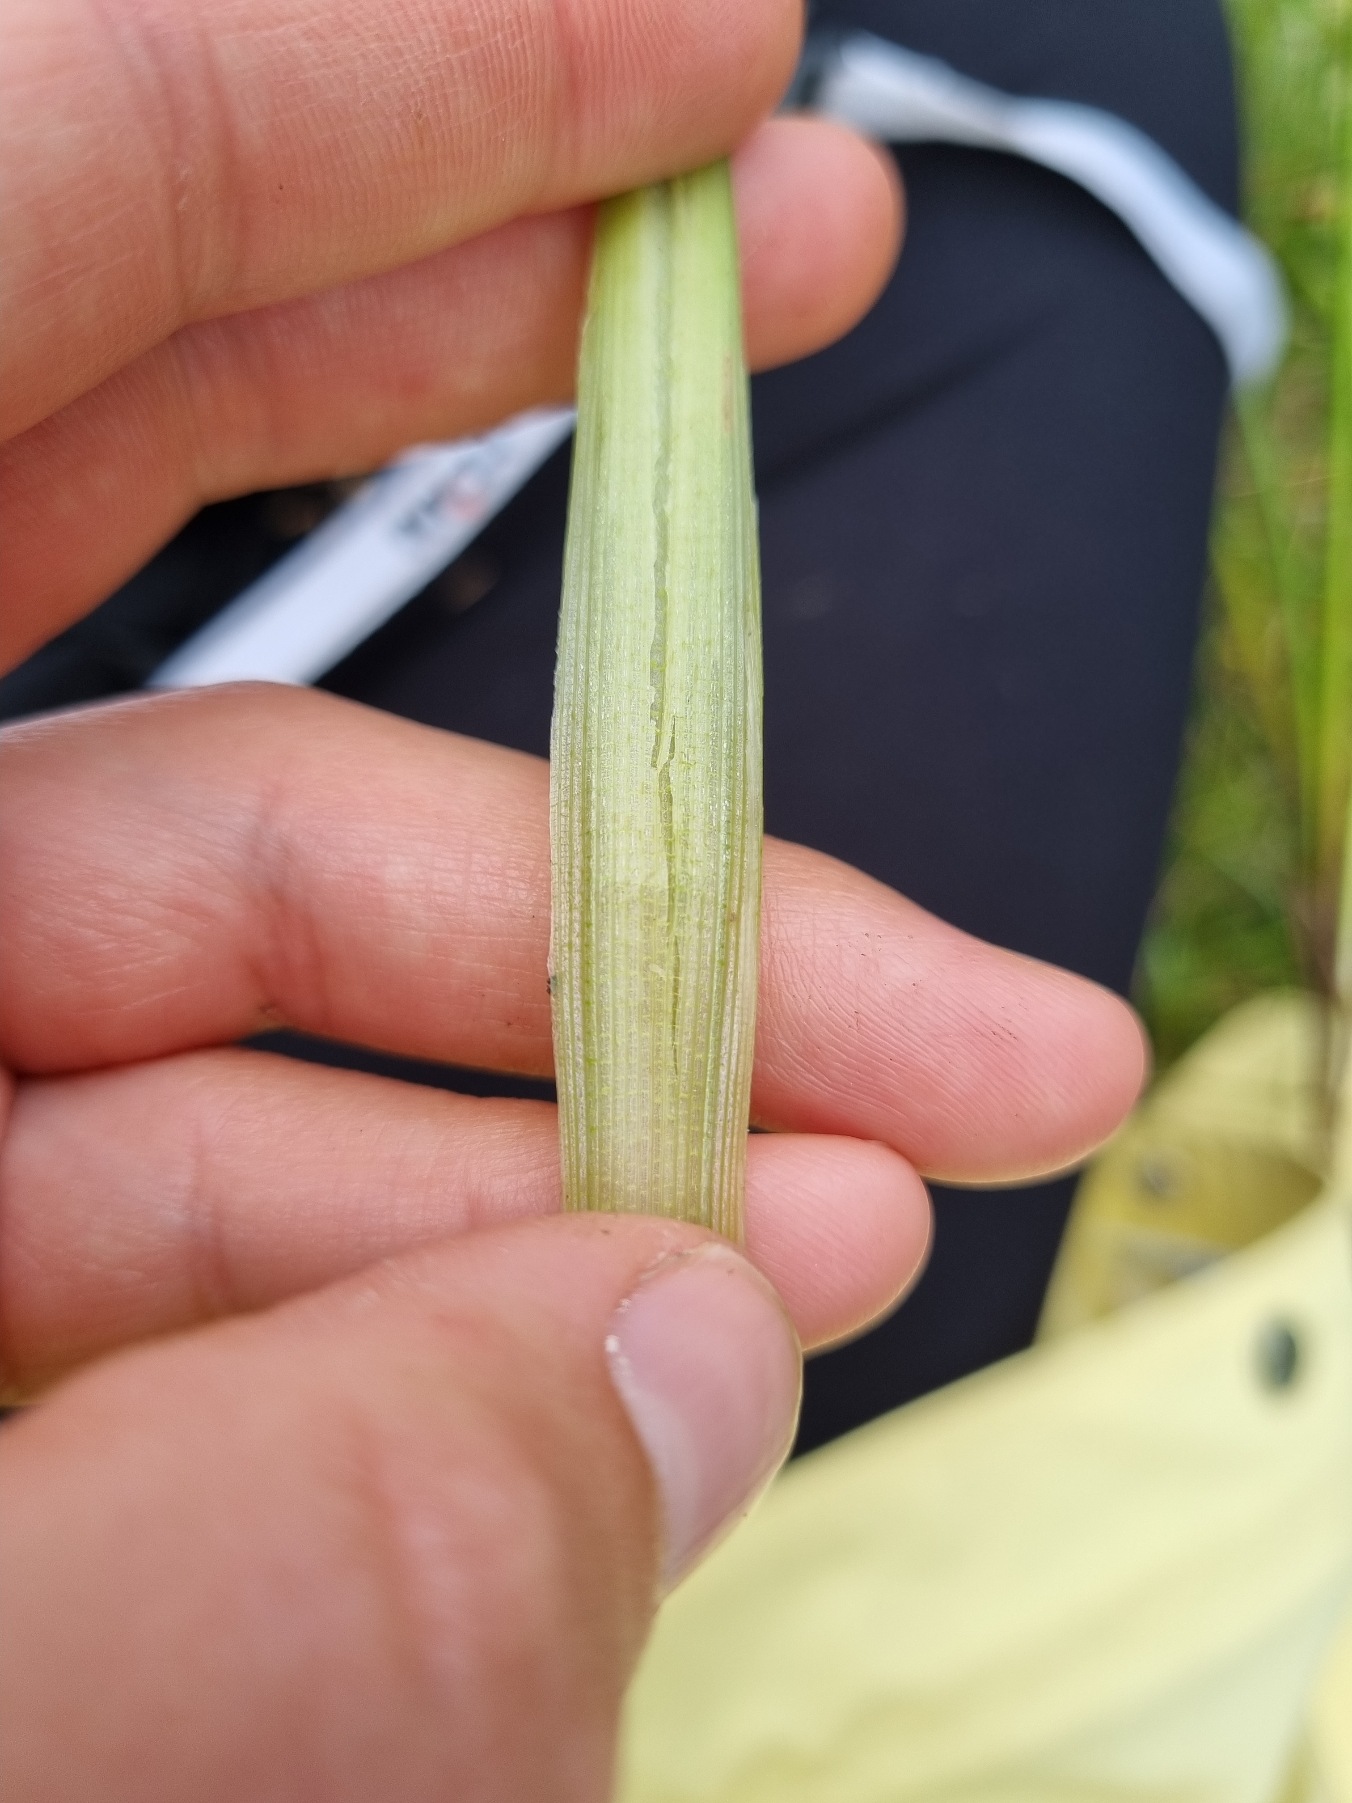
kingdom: Plantae
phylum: Tracheophyta
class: Liliopsida
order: Poales
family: Typhaceae
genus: Sparganium
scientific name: Sparganium emersum
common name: Enkelt pindsvineknop
